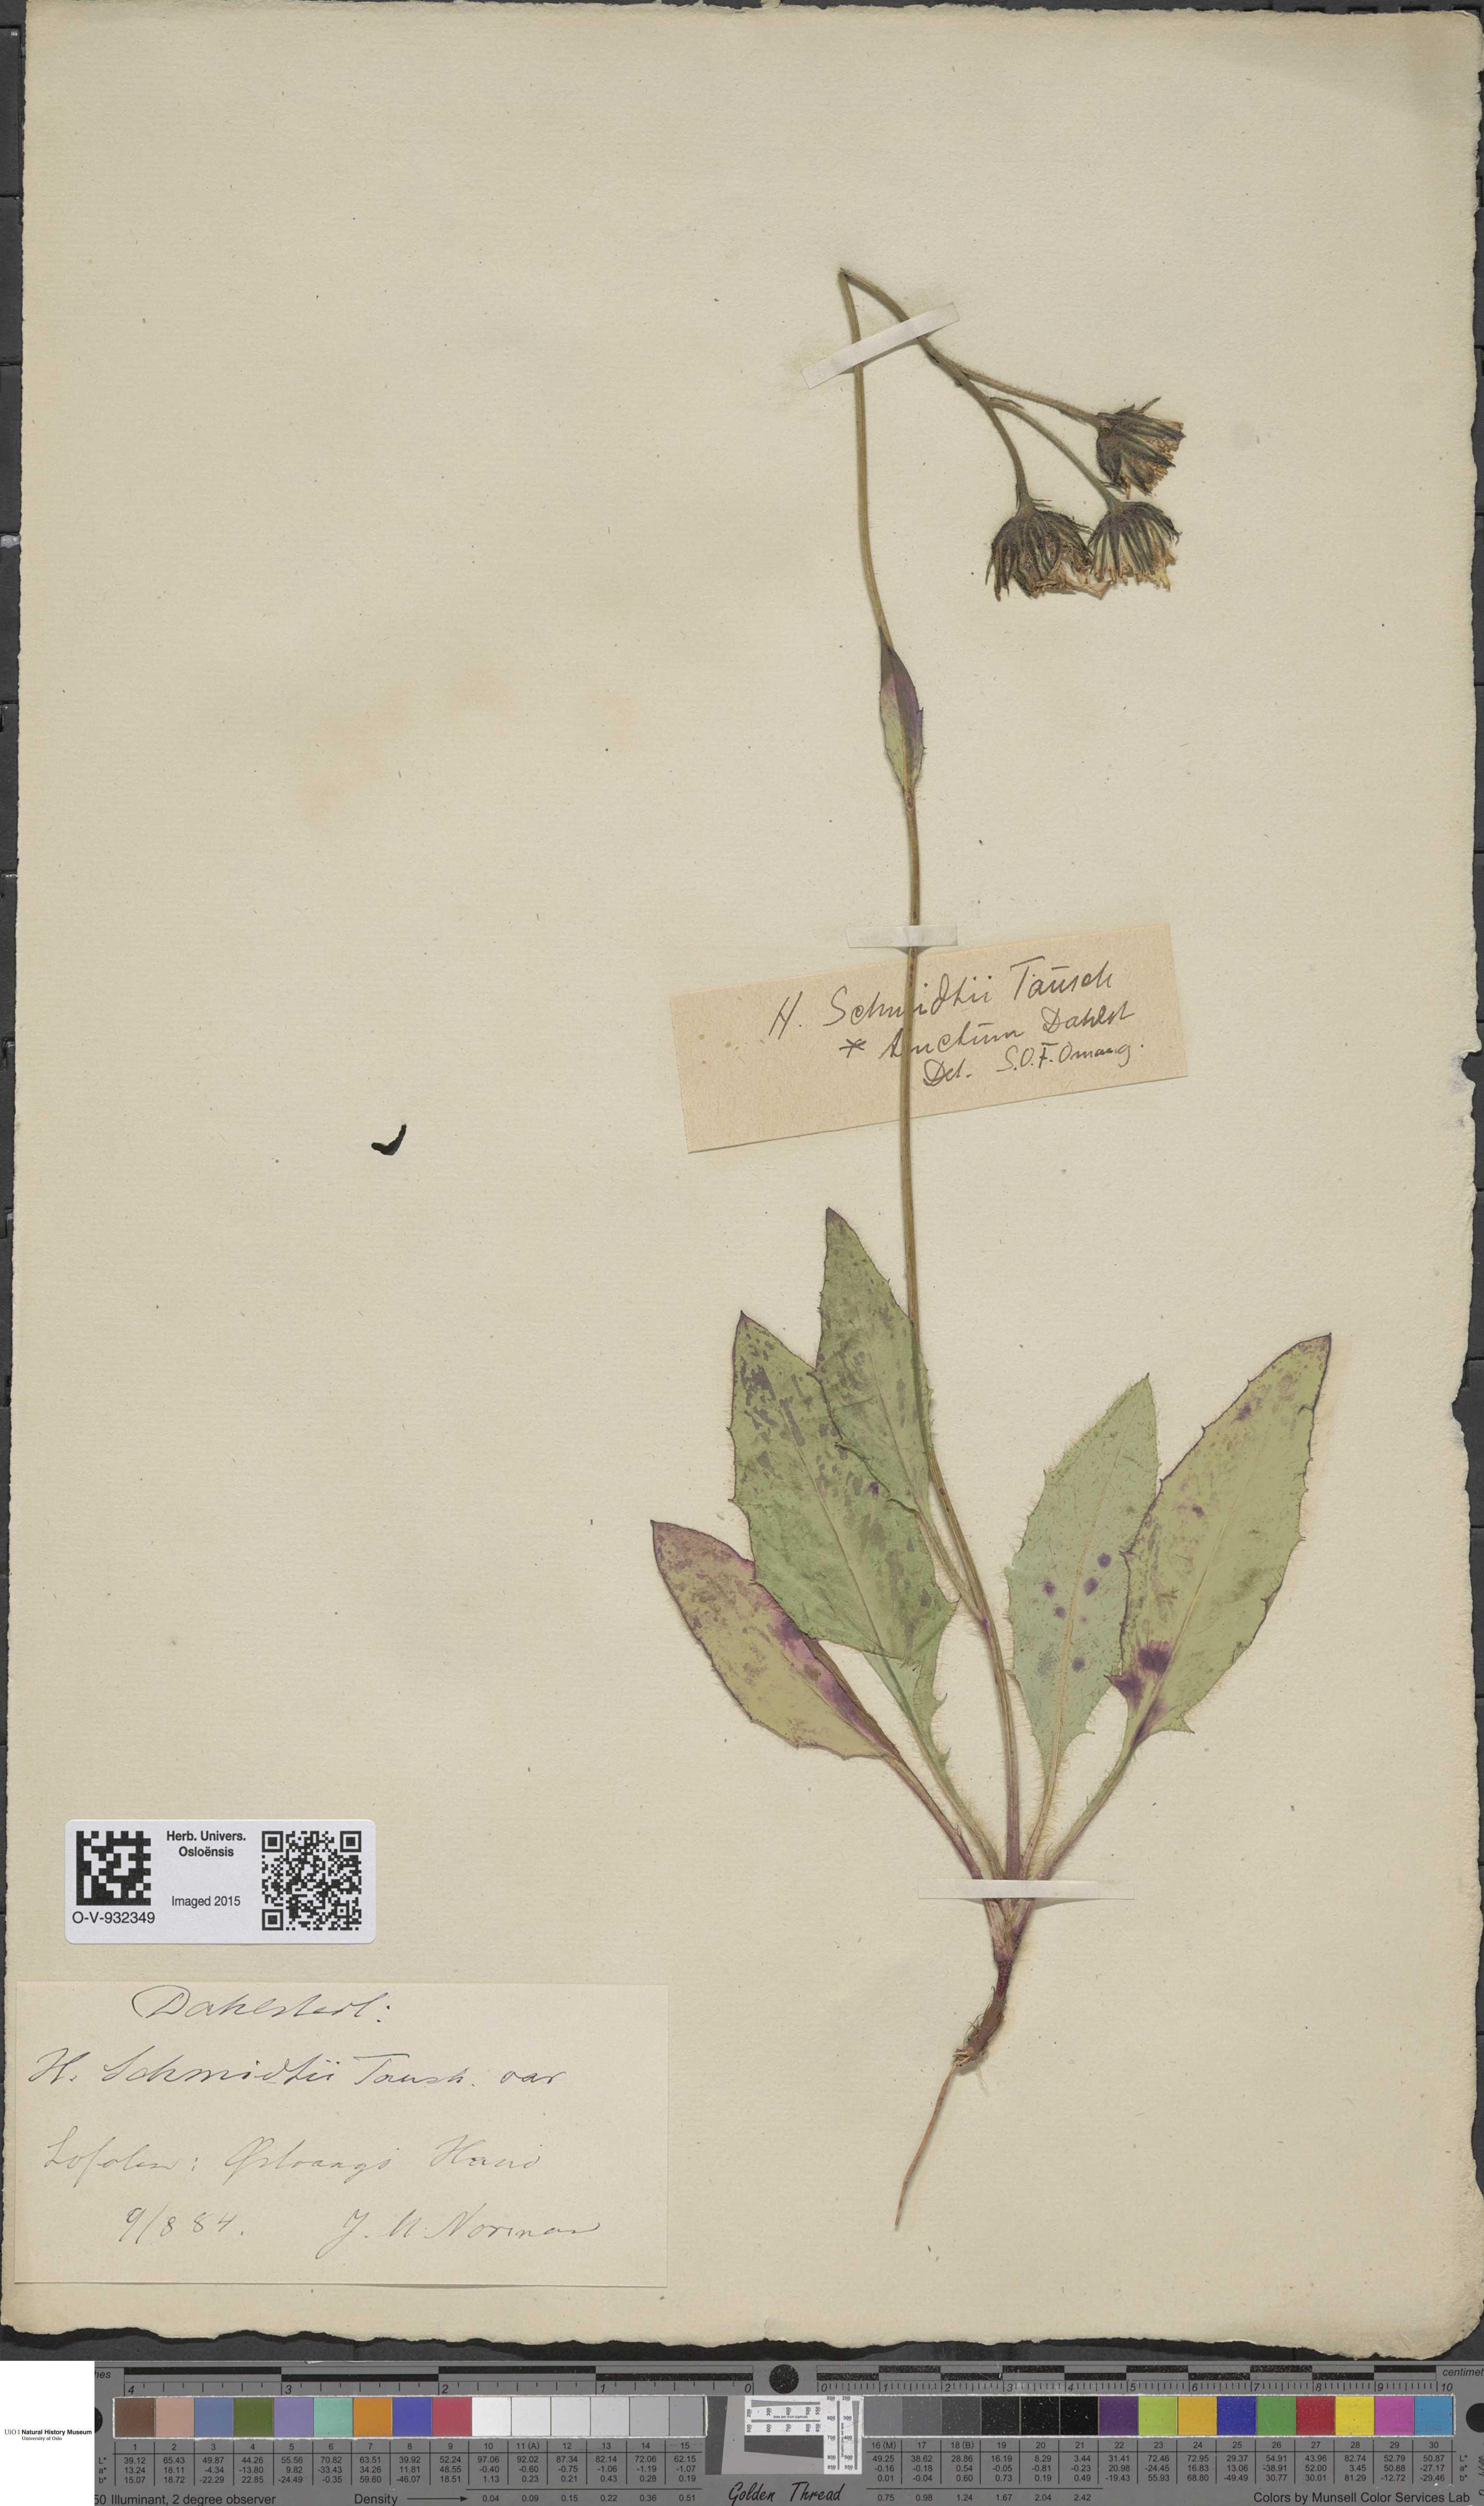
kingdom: Plantae
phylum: Tracheophyta
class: Magnoliopsida
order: Asterales
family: Asteraceae
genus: Hieracium
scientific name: Hieracium schmidtii
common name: Schmidt's hawkweed
